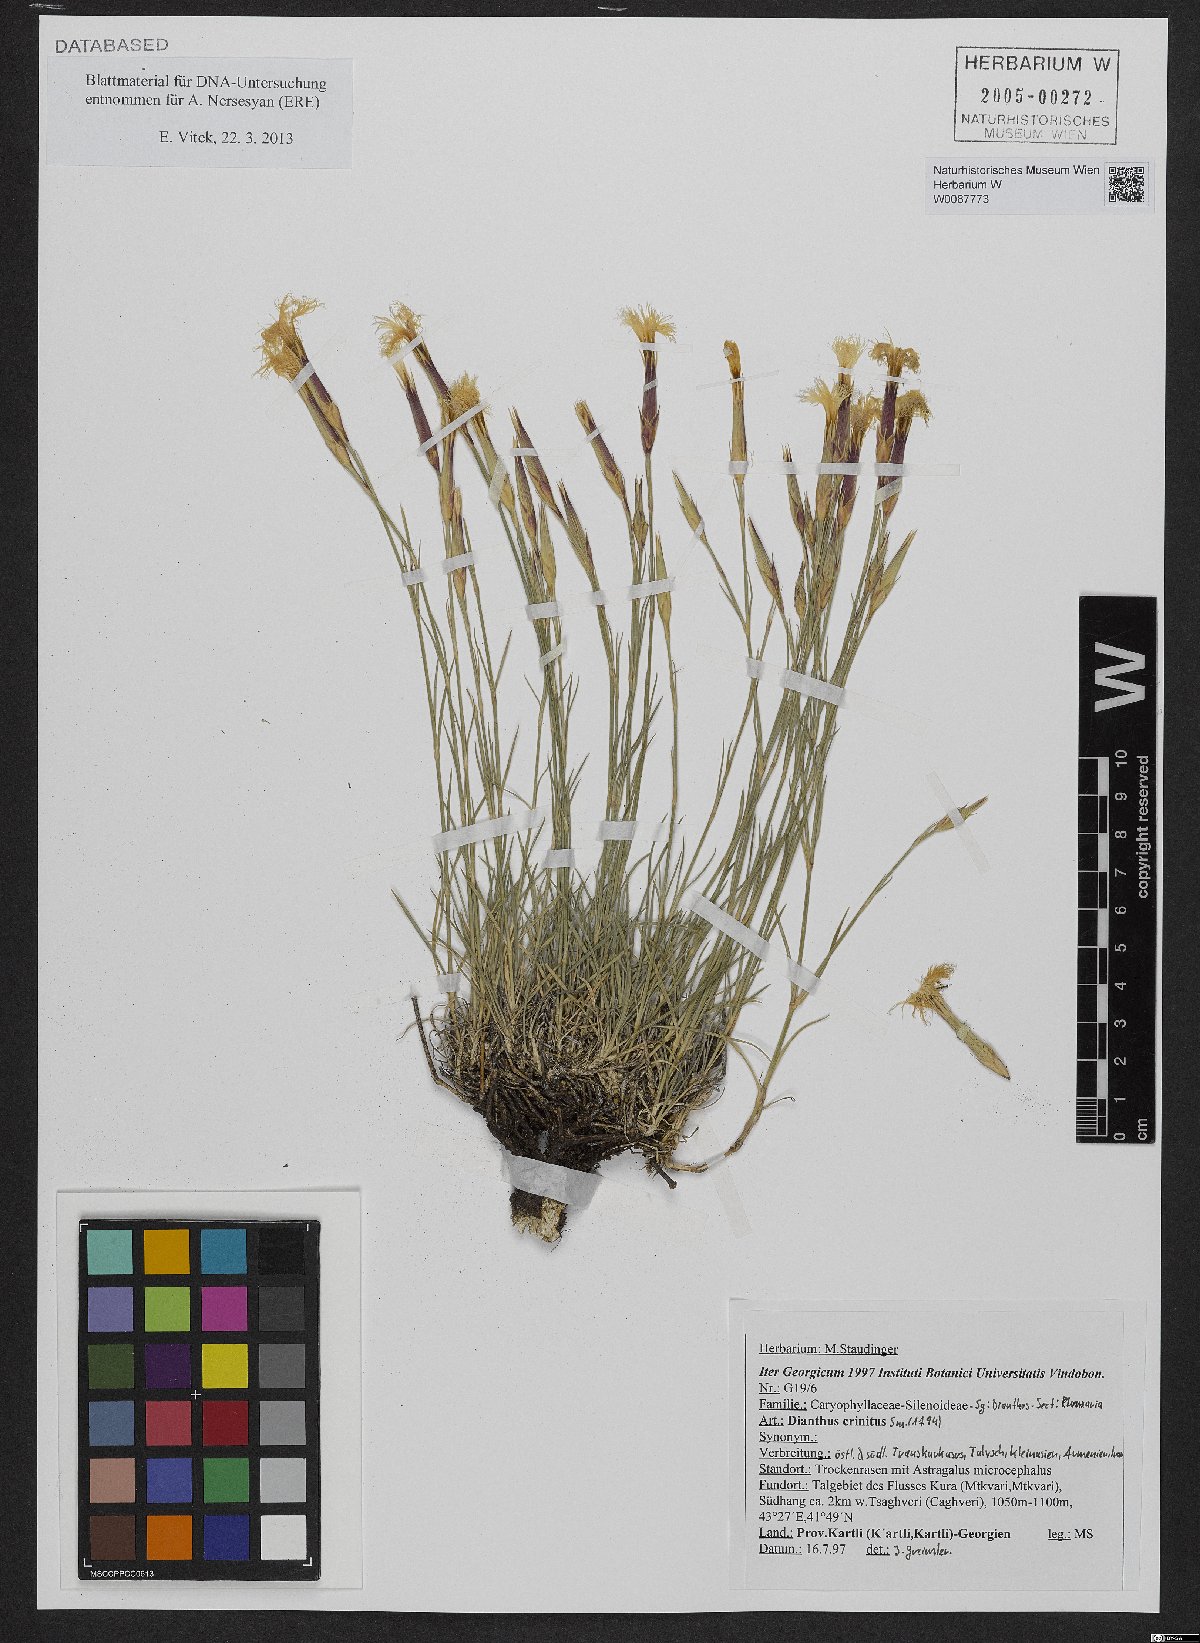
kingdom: Plantae
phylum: Tracheophyta
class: Magnoliopsida
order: Caryophyllales
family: Caryophyllaceae
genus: Dianthus
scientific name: Dianthus crinitus
